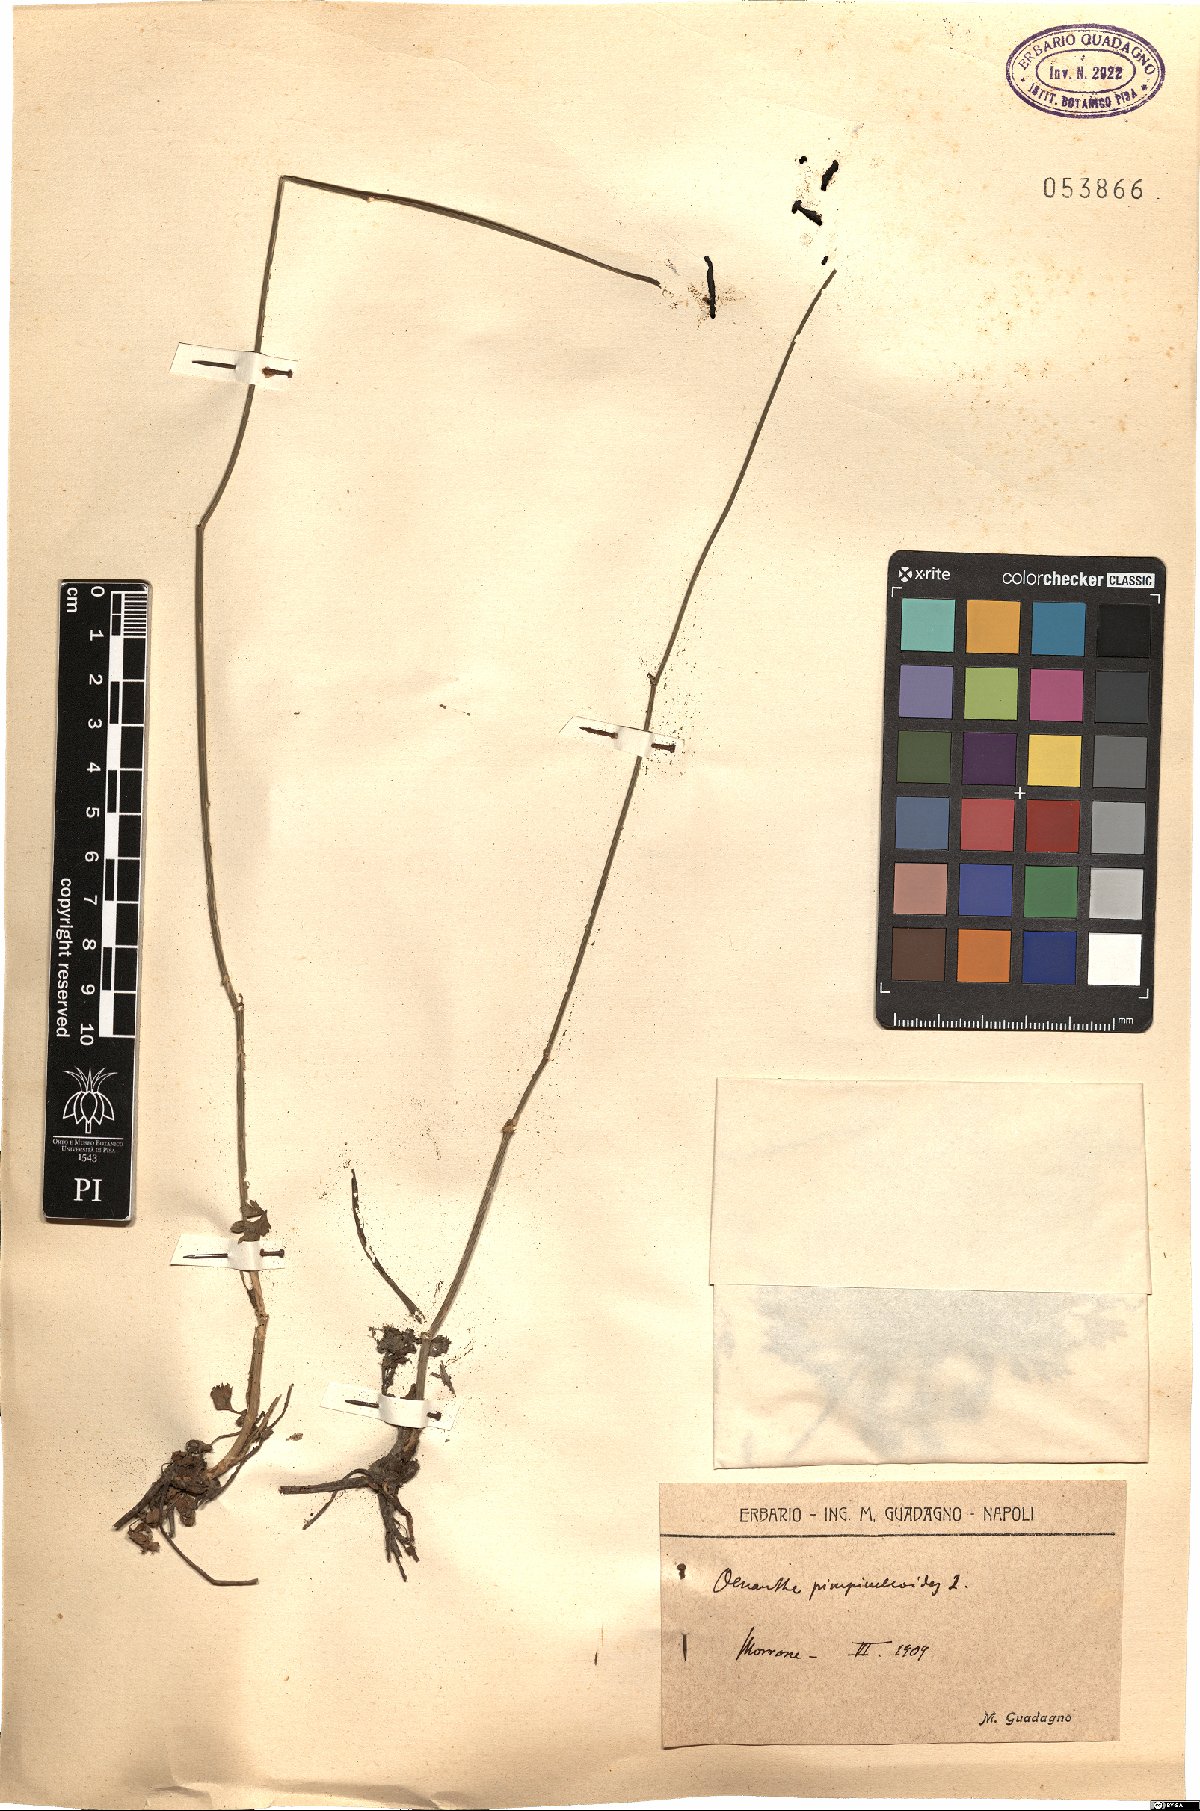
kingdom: Plantae
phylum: Tracheophyta
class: Magnoliopsida
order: Apiales
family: Apiaceae
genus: Oenanthe
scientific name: Oenanthe pimpinelloides
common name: Corky-fruited water-dropwort
